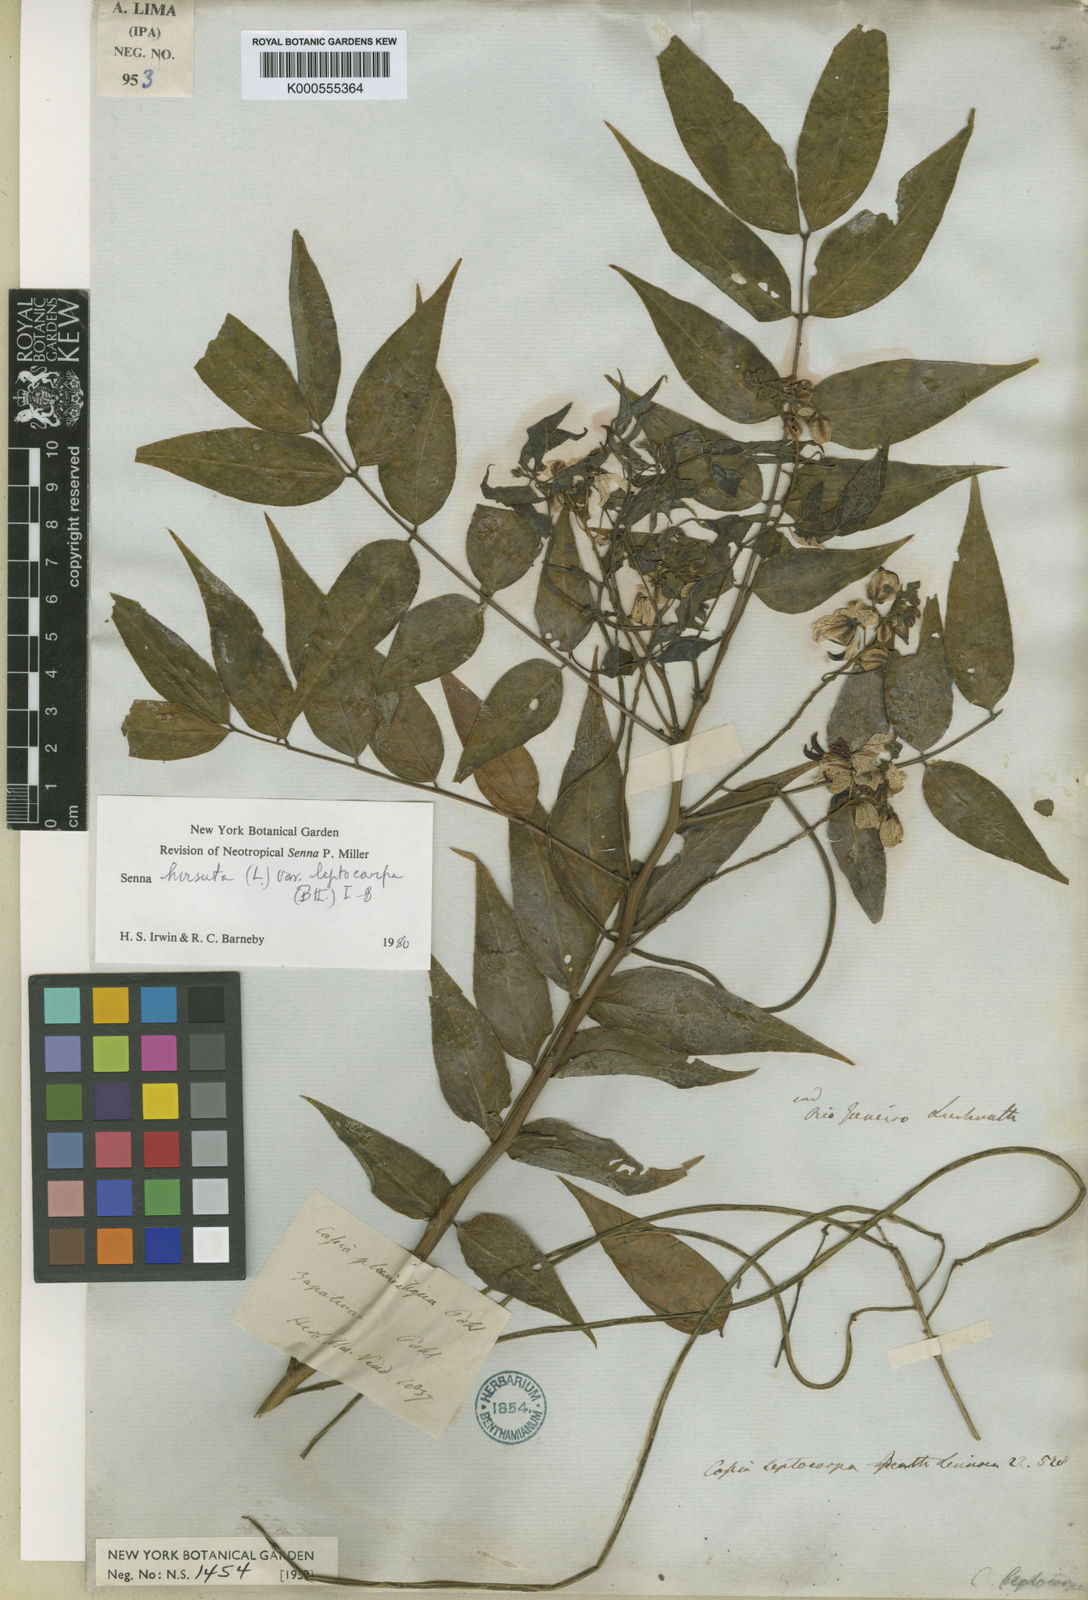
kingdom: Plantae
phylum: Tracheophyta
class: Magnoliopsida
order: Fabales
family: Fabaceae
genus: Senna
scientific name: Senna hirsuta
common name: Woolly senna
